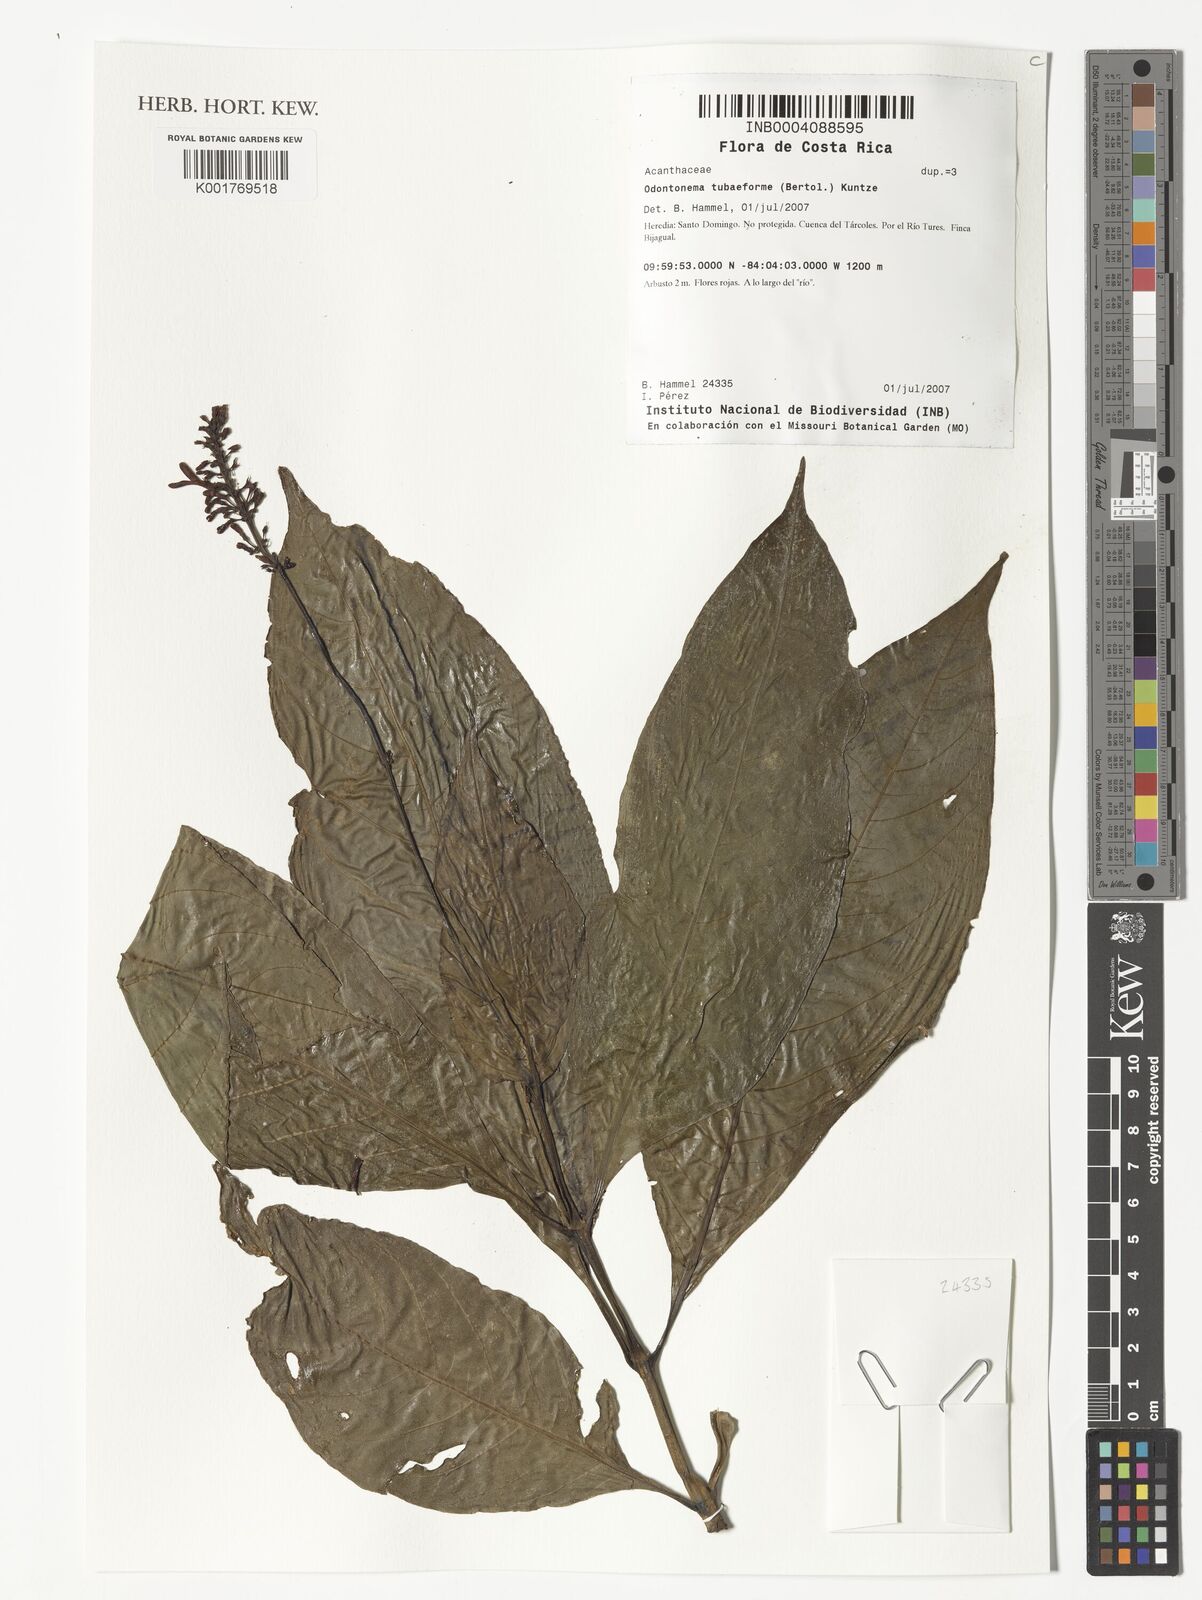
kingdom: Plantae
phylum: Tracheophyta
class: Magnoliopsida
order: Lamiales
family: Acanthaceae
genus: Odontonema
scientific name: Odontonema tubaeforme
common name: Firespike
